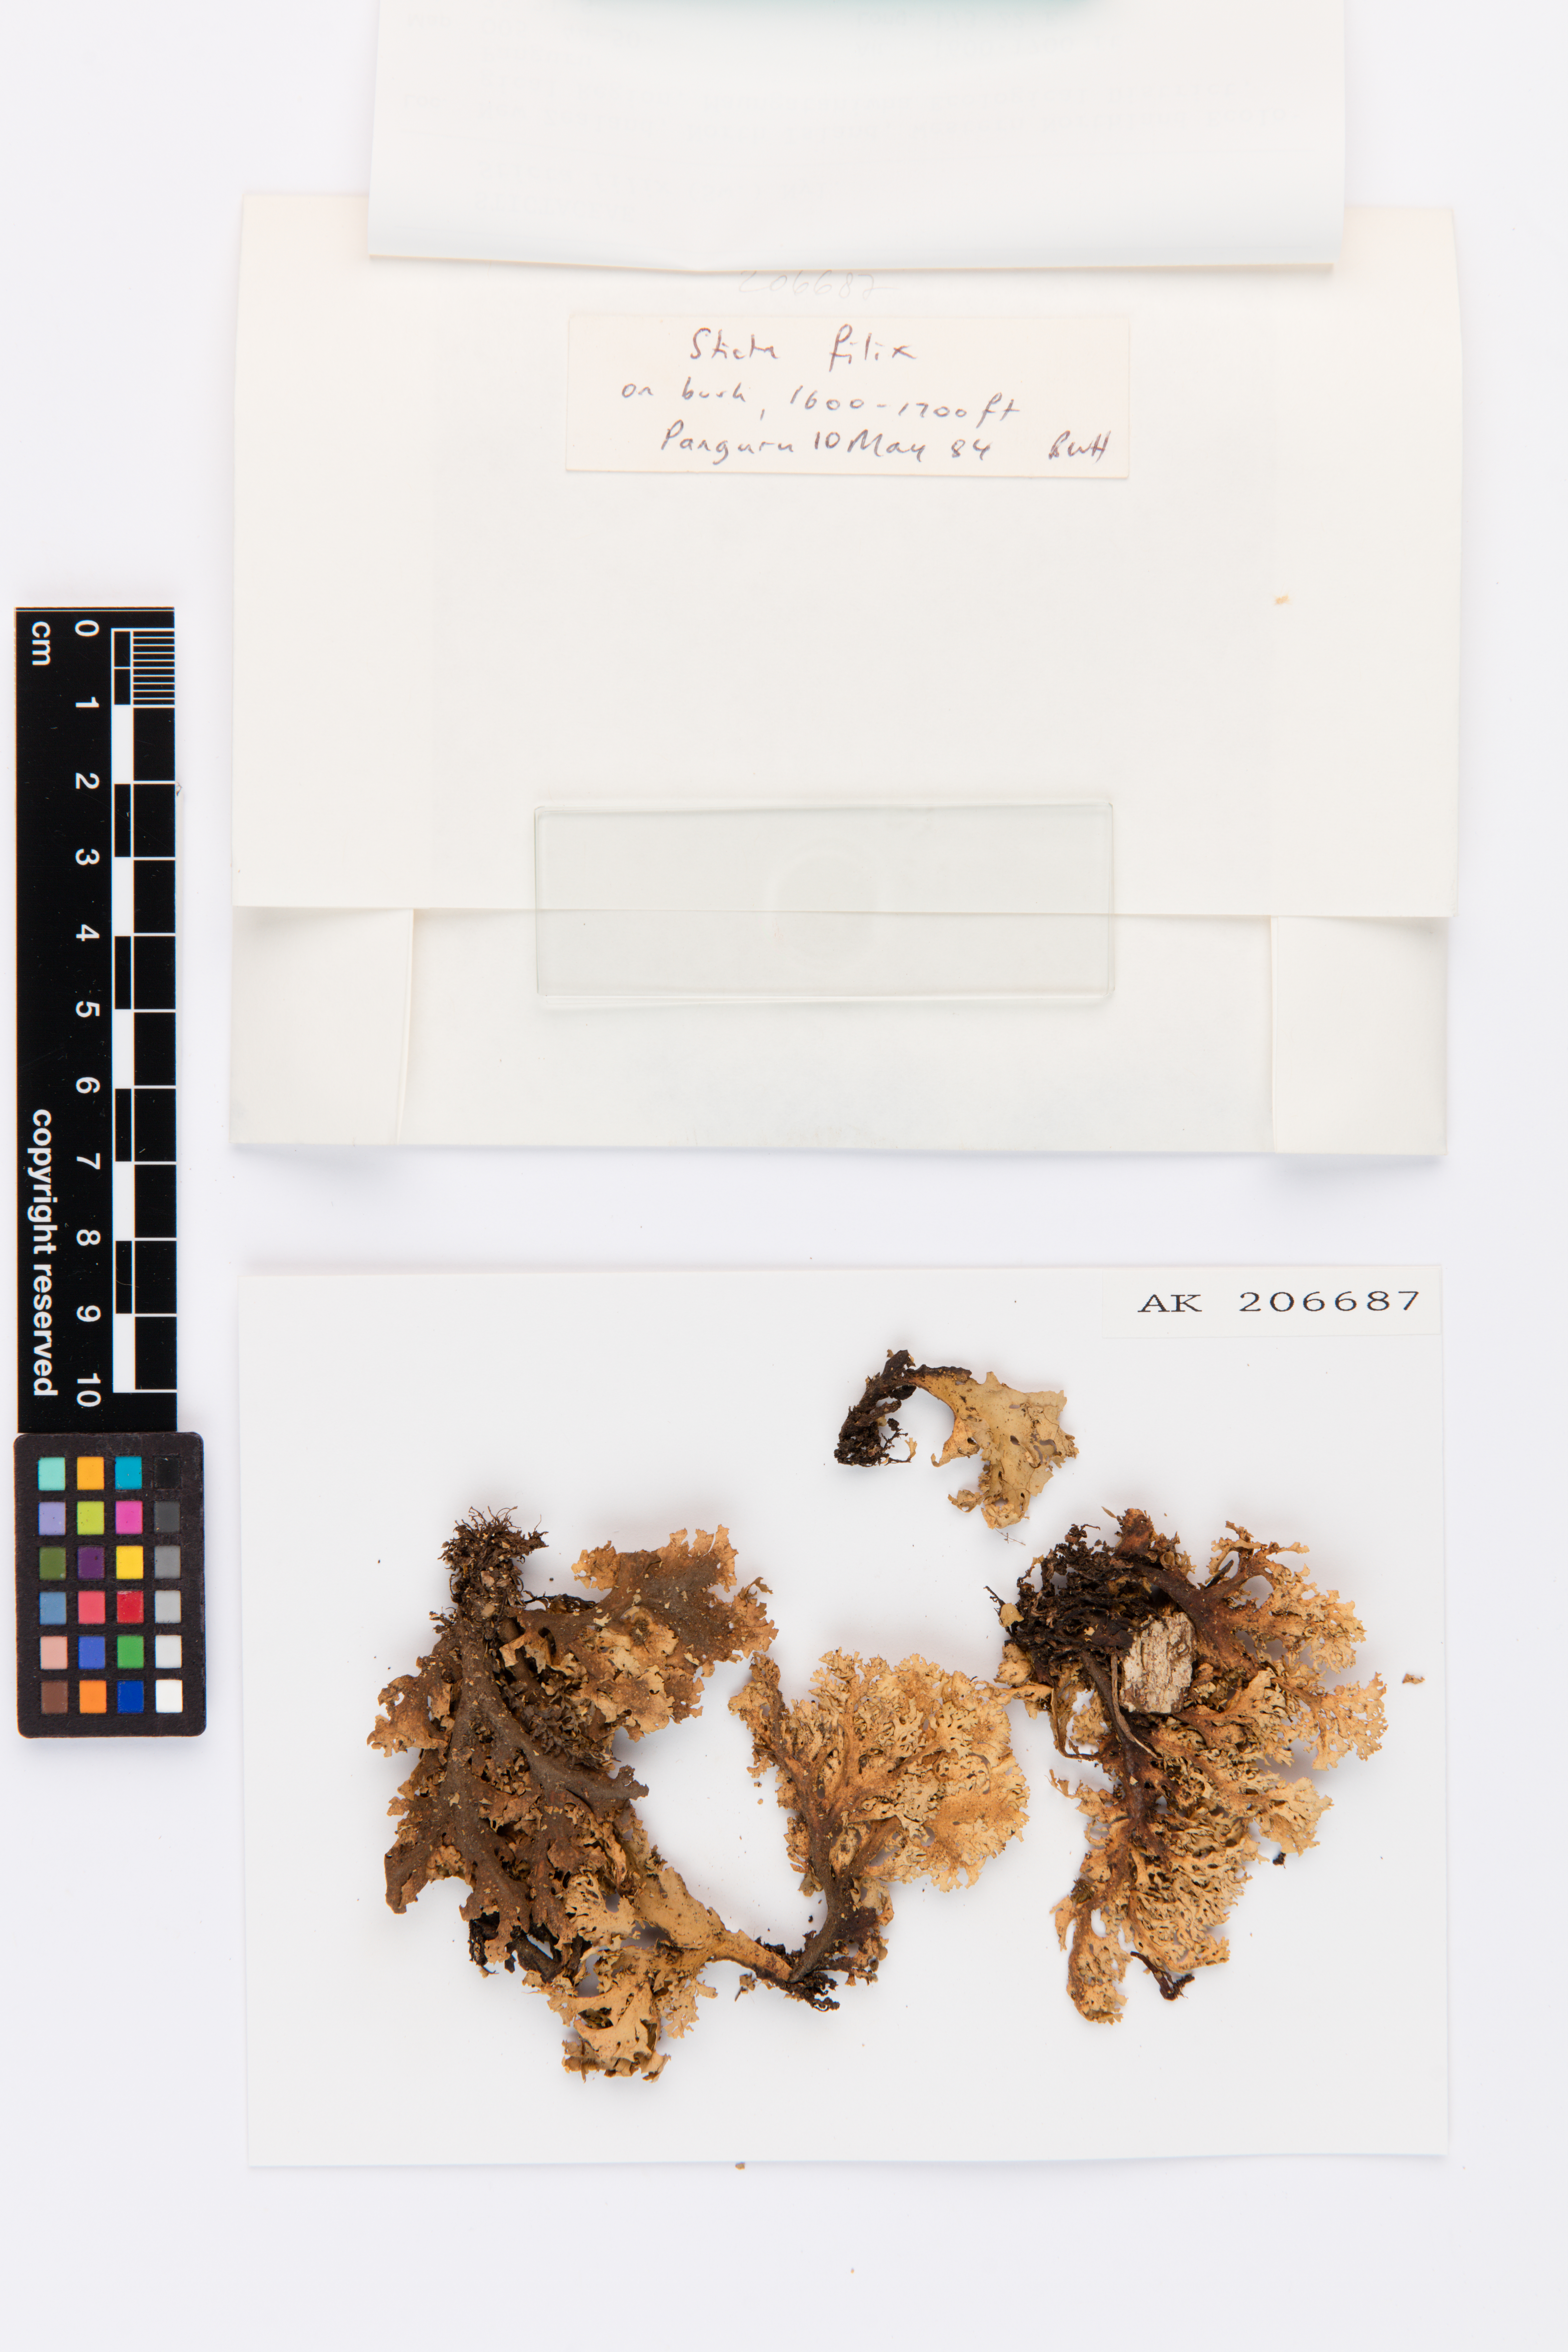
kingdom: Fungi
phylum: Ascomycota
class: Lecanoromycetes
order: Peltigerales
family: Lobariaceae
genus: Sticta
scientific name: Sticta filix
